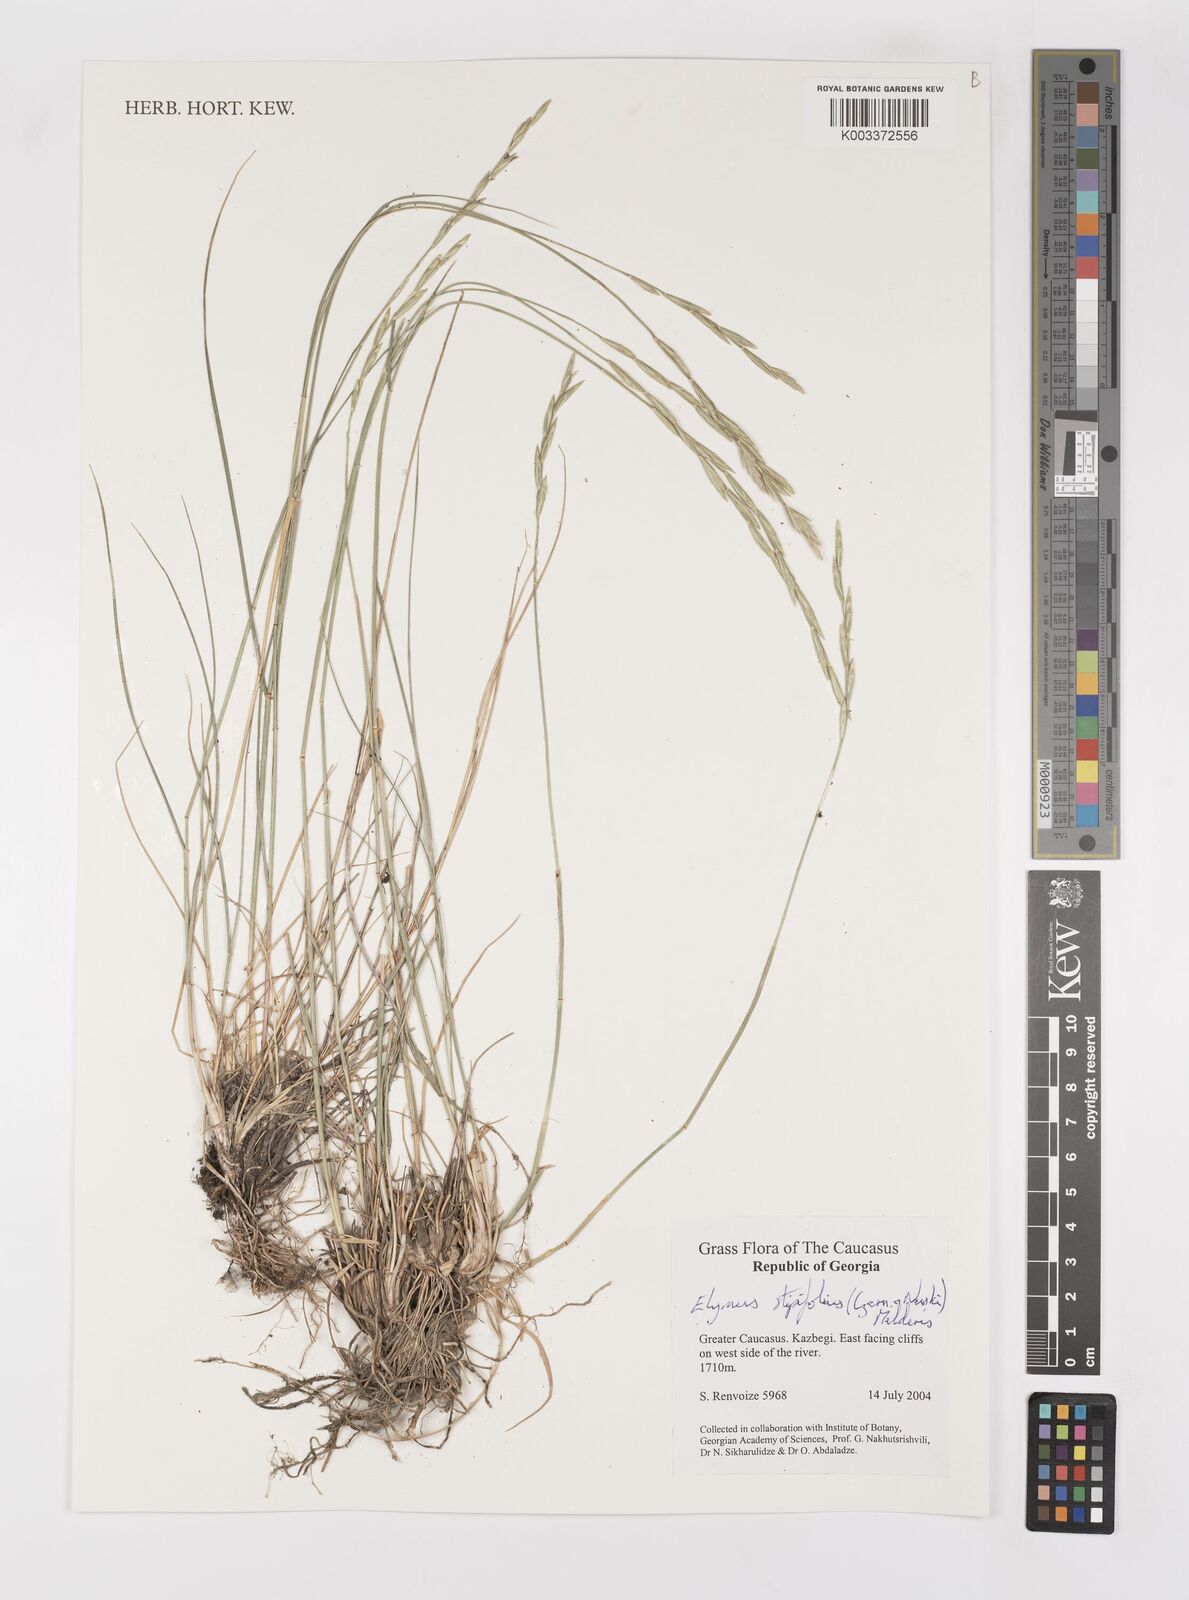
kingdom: Plantae
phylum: Tracheophyta
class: Liliopsida
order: Poales
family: Poaceae
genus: Pseudoroegneria
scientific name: Pseudoroegneria stipifolia
